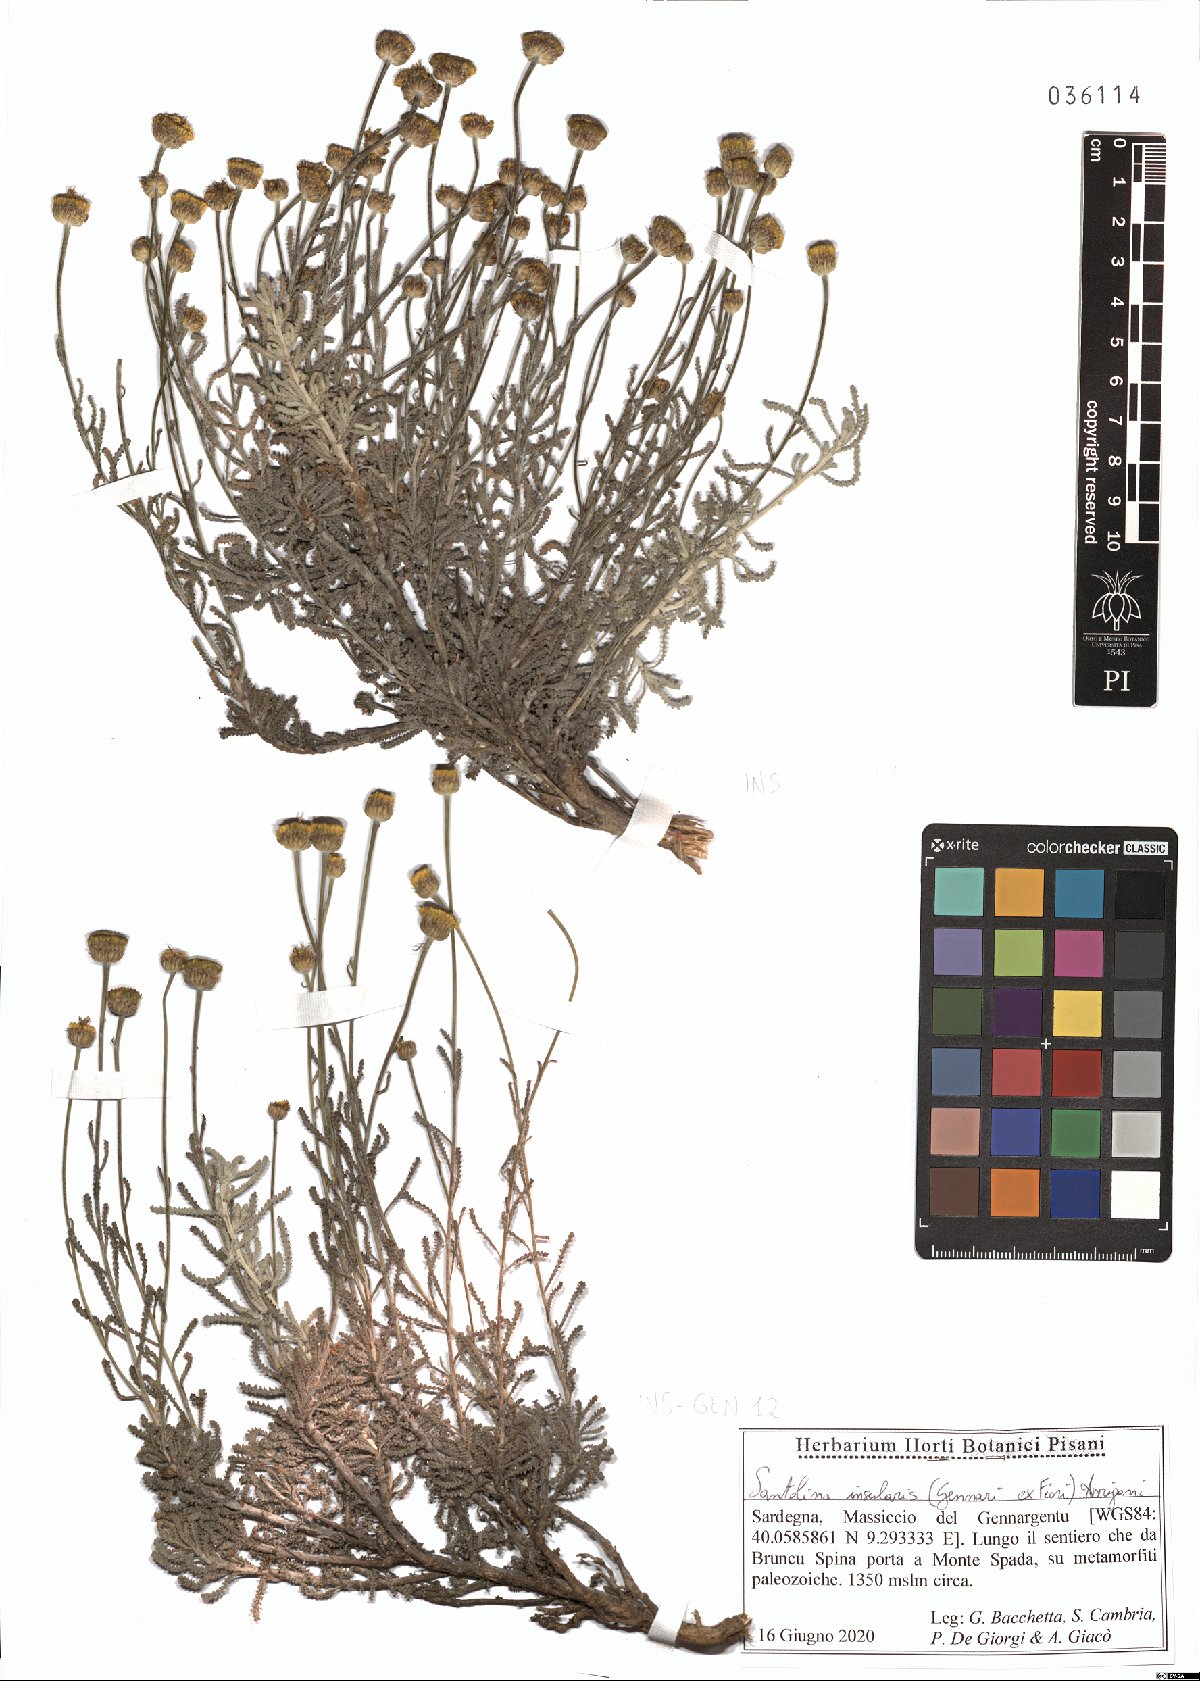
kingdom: Plantae
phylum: Tracheophyta
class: Magnoliopsida
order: Asterales
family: Asteraceae
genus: Santolina
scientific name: Santolina insularis
